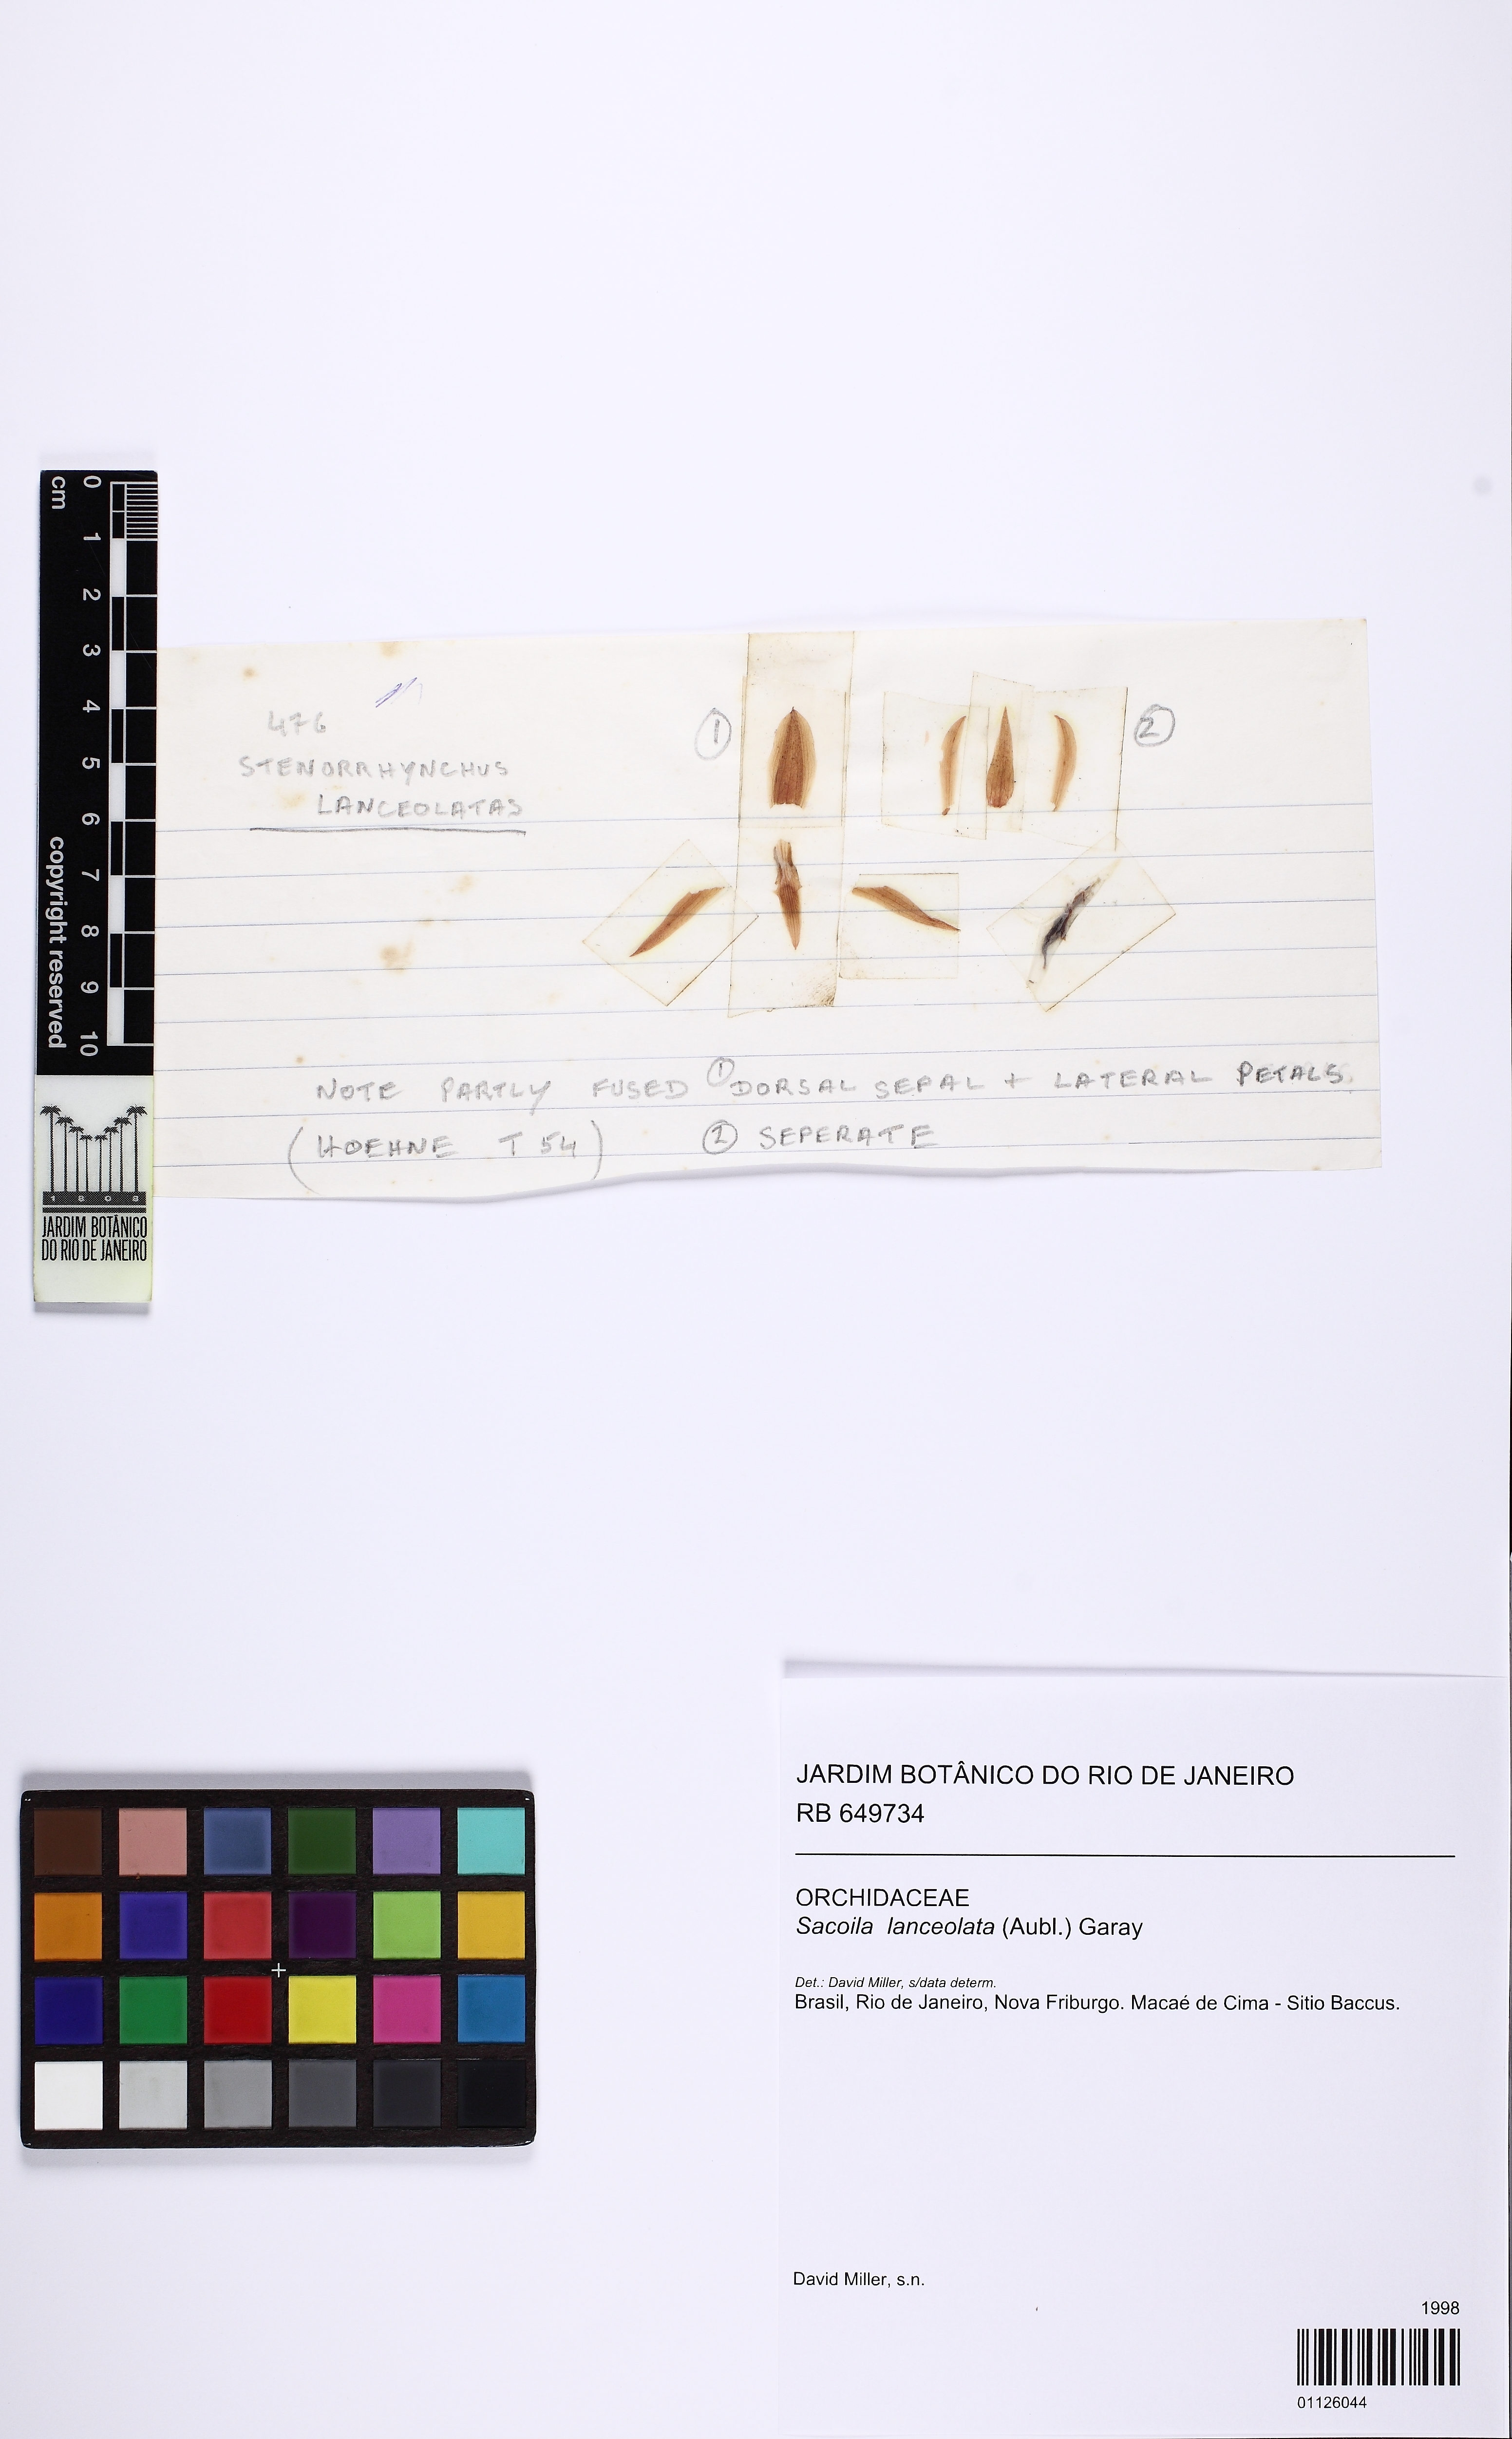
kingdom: Plantae
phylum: Tracheophyta
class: Liliopsida
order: Asparagales
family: Orchidaceae
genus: Sacoila
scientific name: Sacoila lanceolata
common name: Leafless beaked ladiestresses
